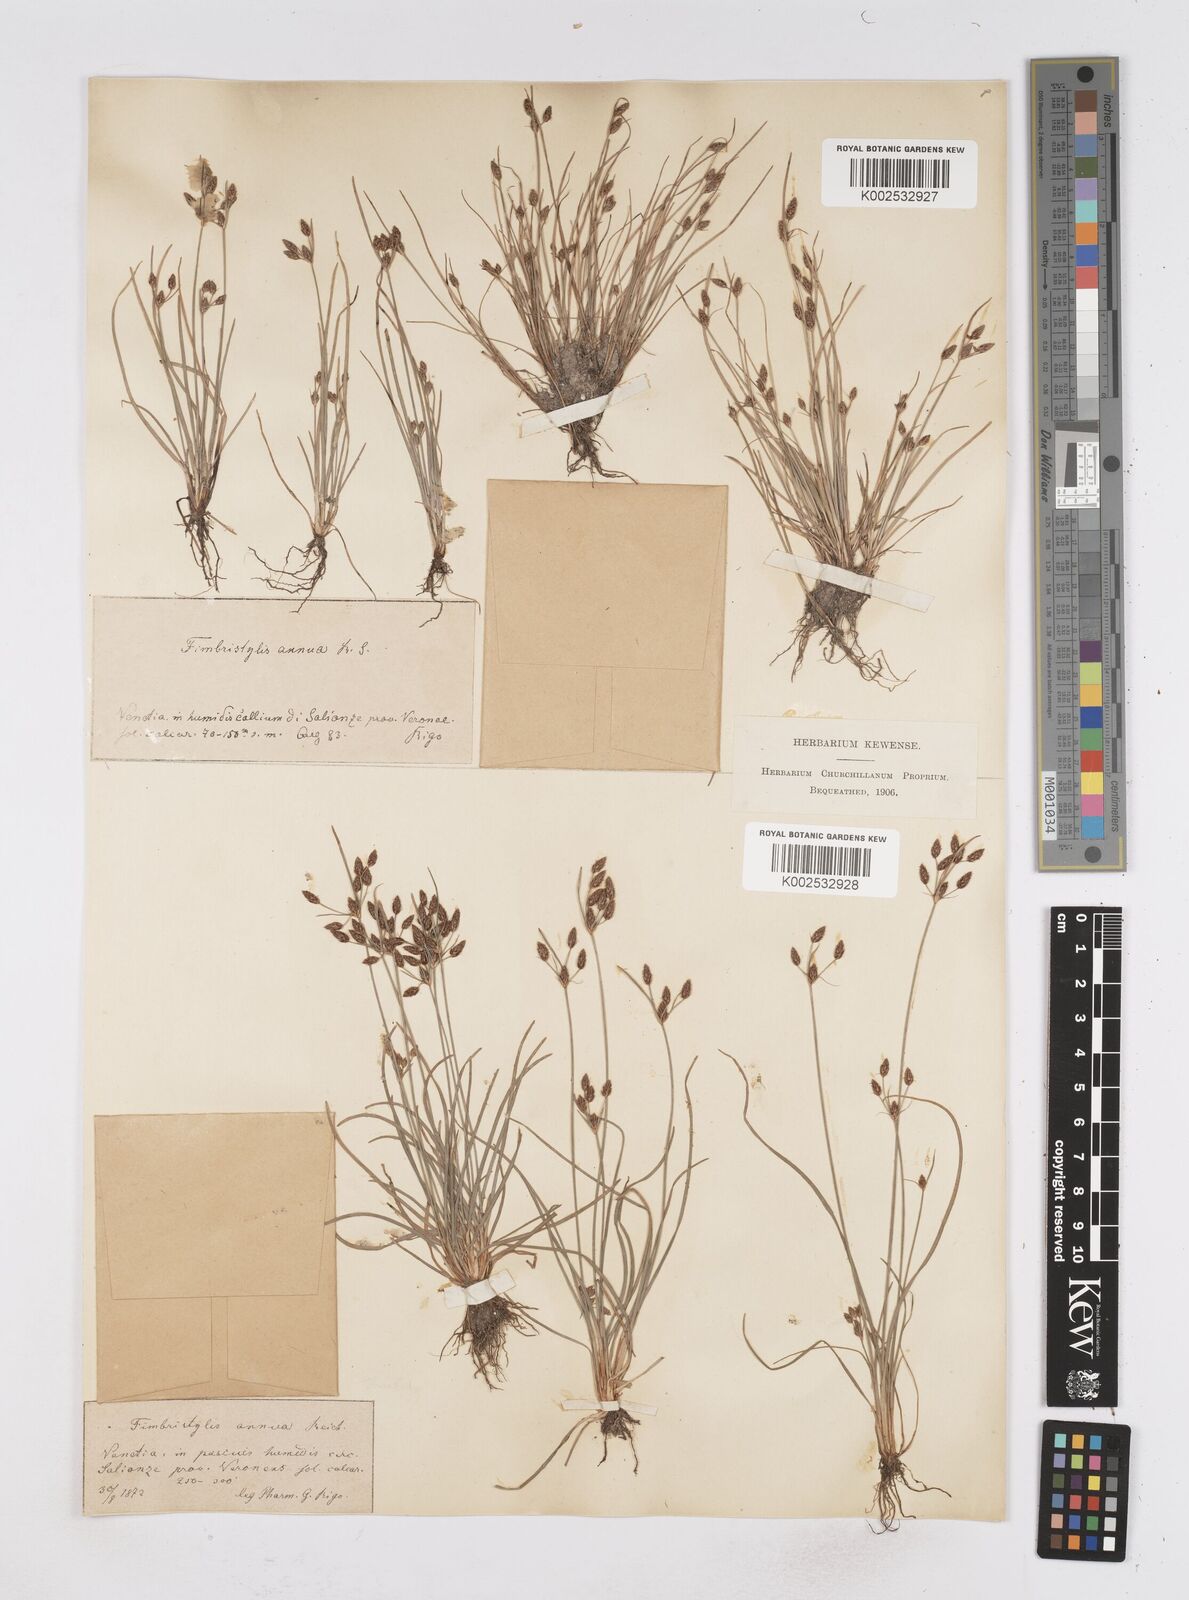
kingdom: Plantae
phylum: Tracheophyta
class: Liliopsida
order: Poales
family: Cyperaceae
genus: Fimbristylis
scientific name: Fimbristylis dichotoma
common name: Forked fimbry
